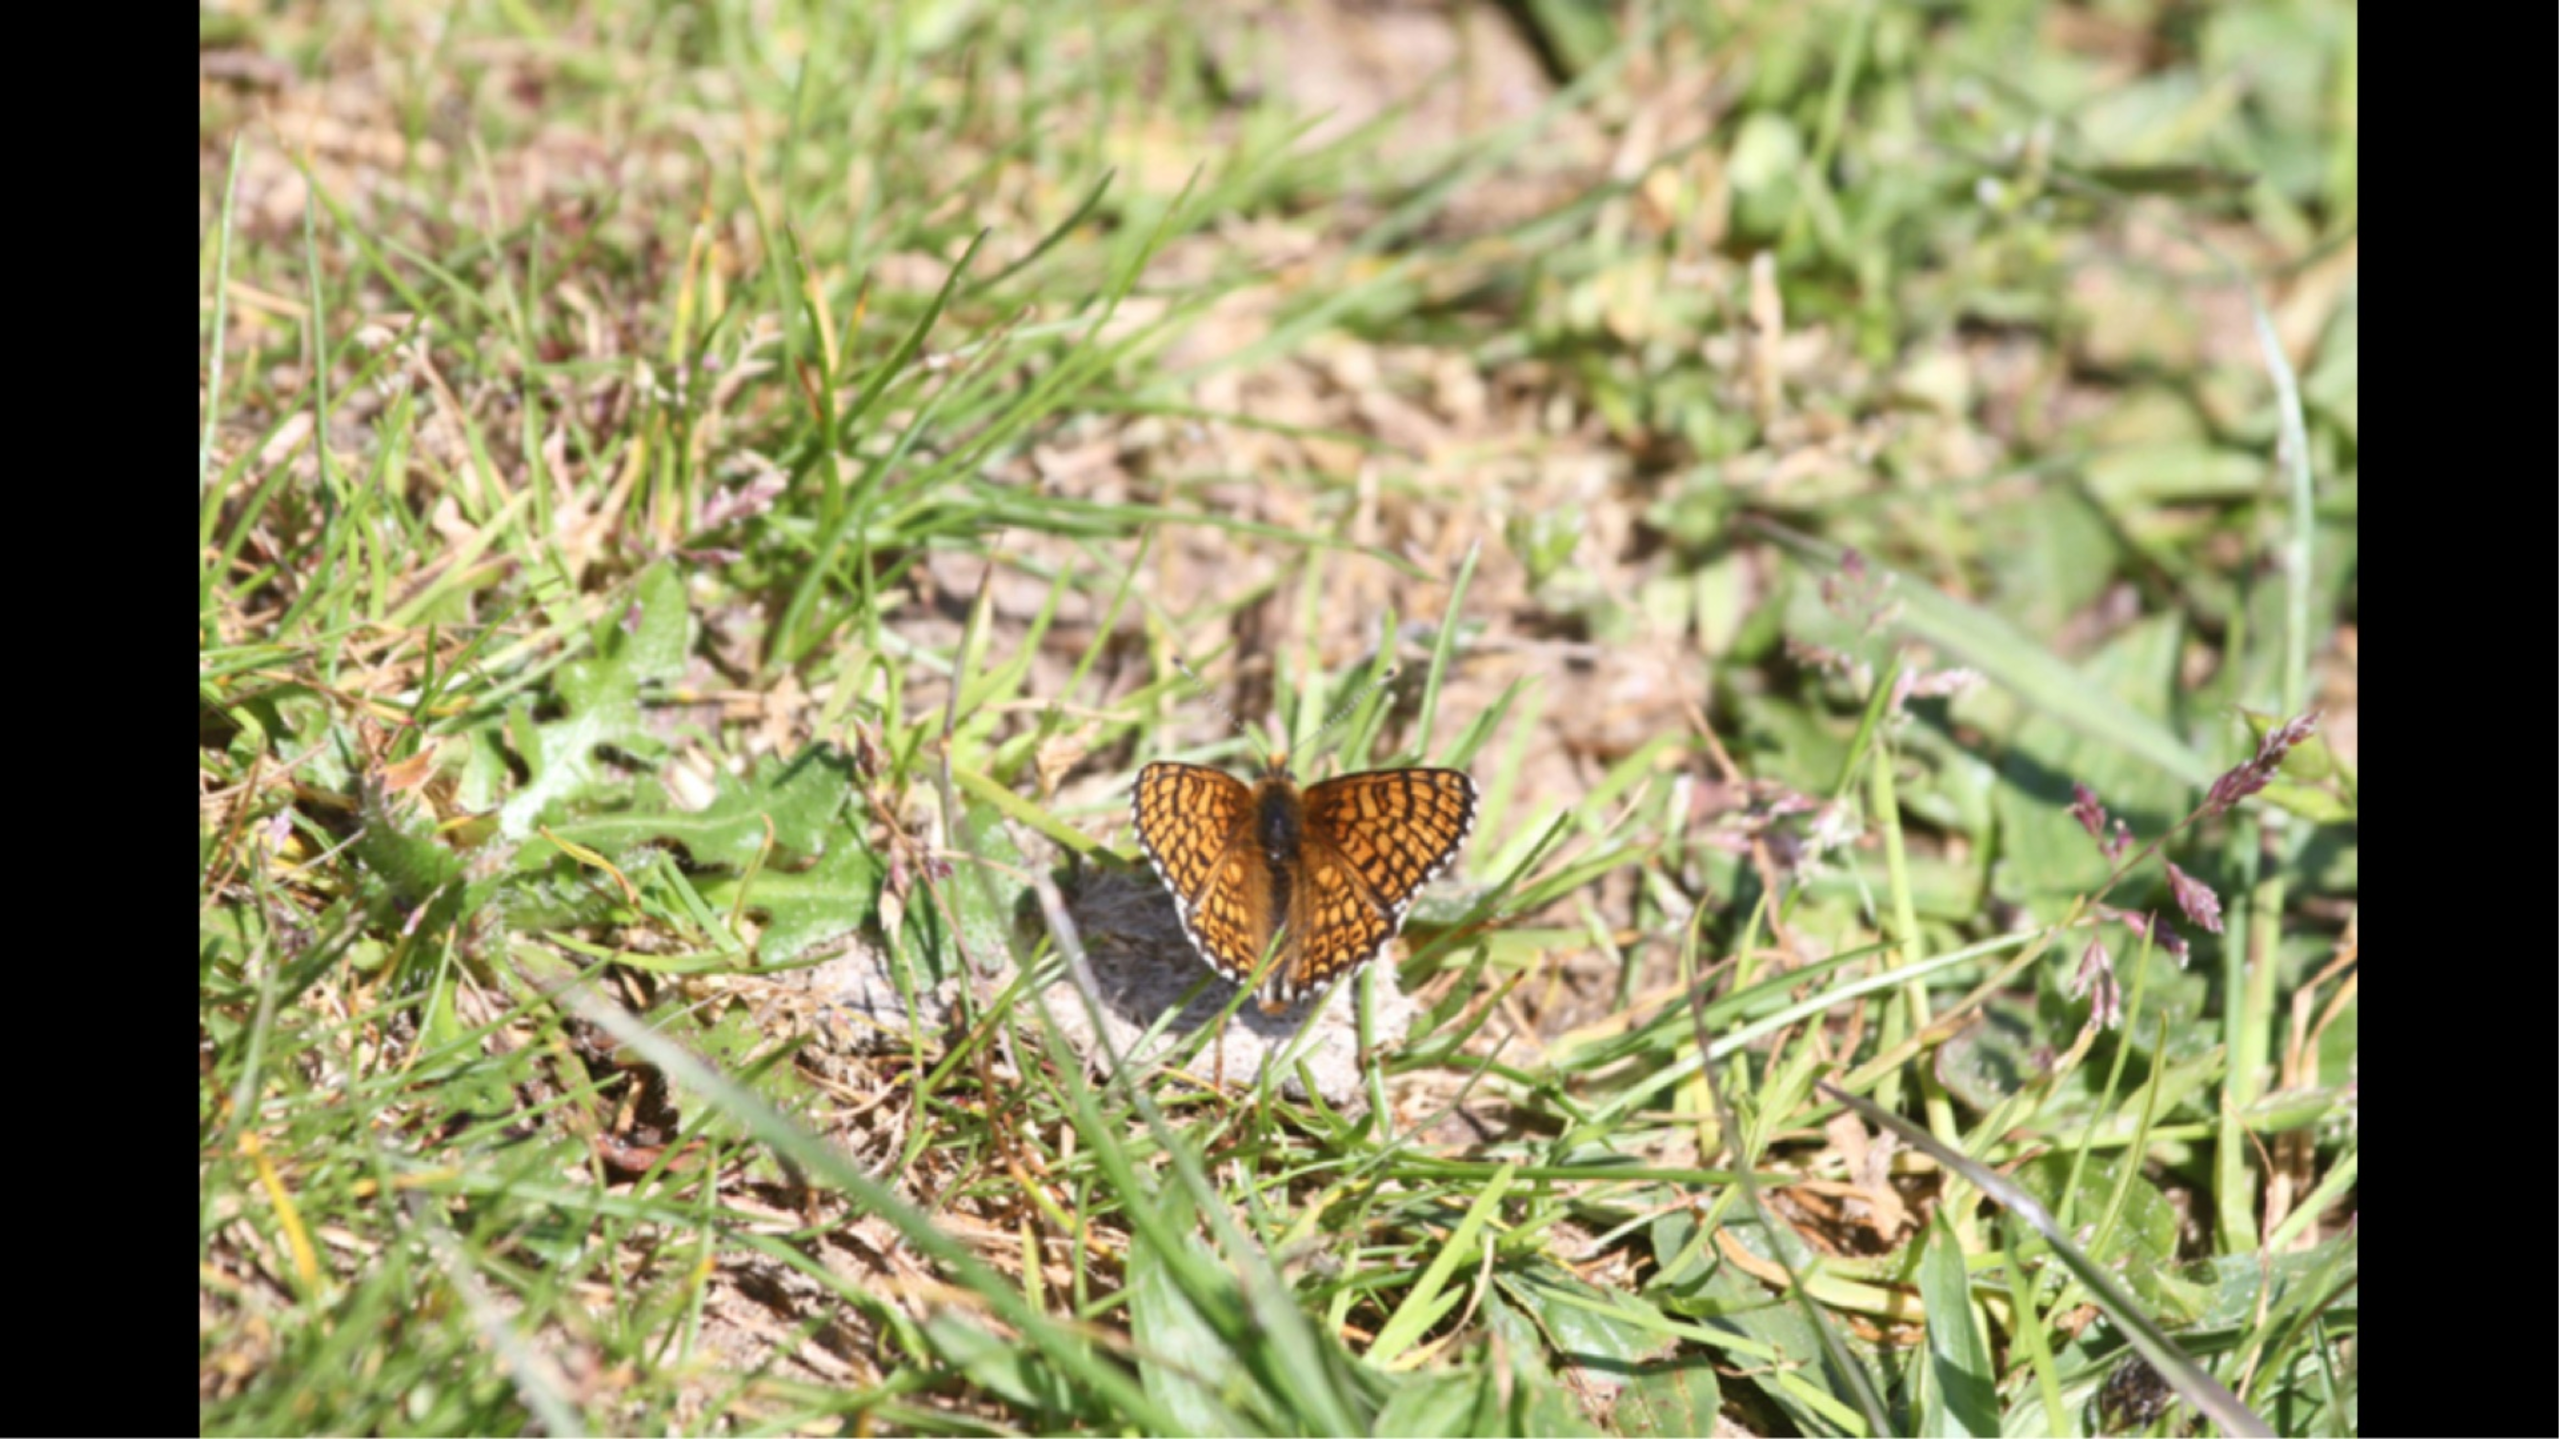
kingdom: Animalia
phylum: Arthropoda
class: Insecta
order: Lepidoptera
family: Nymphalidae
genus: Melitaea
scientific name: Melitaea cinxia
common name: Okkergul pletvinge
